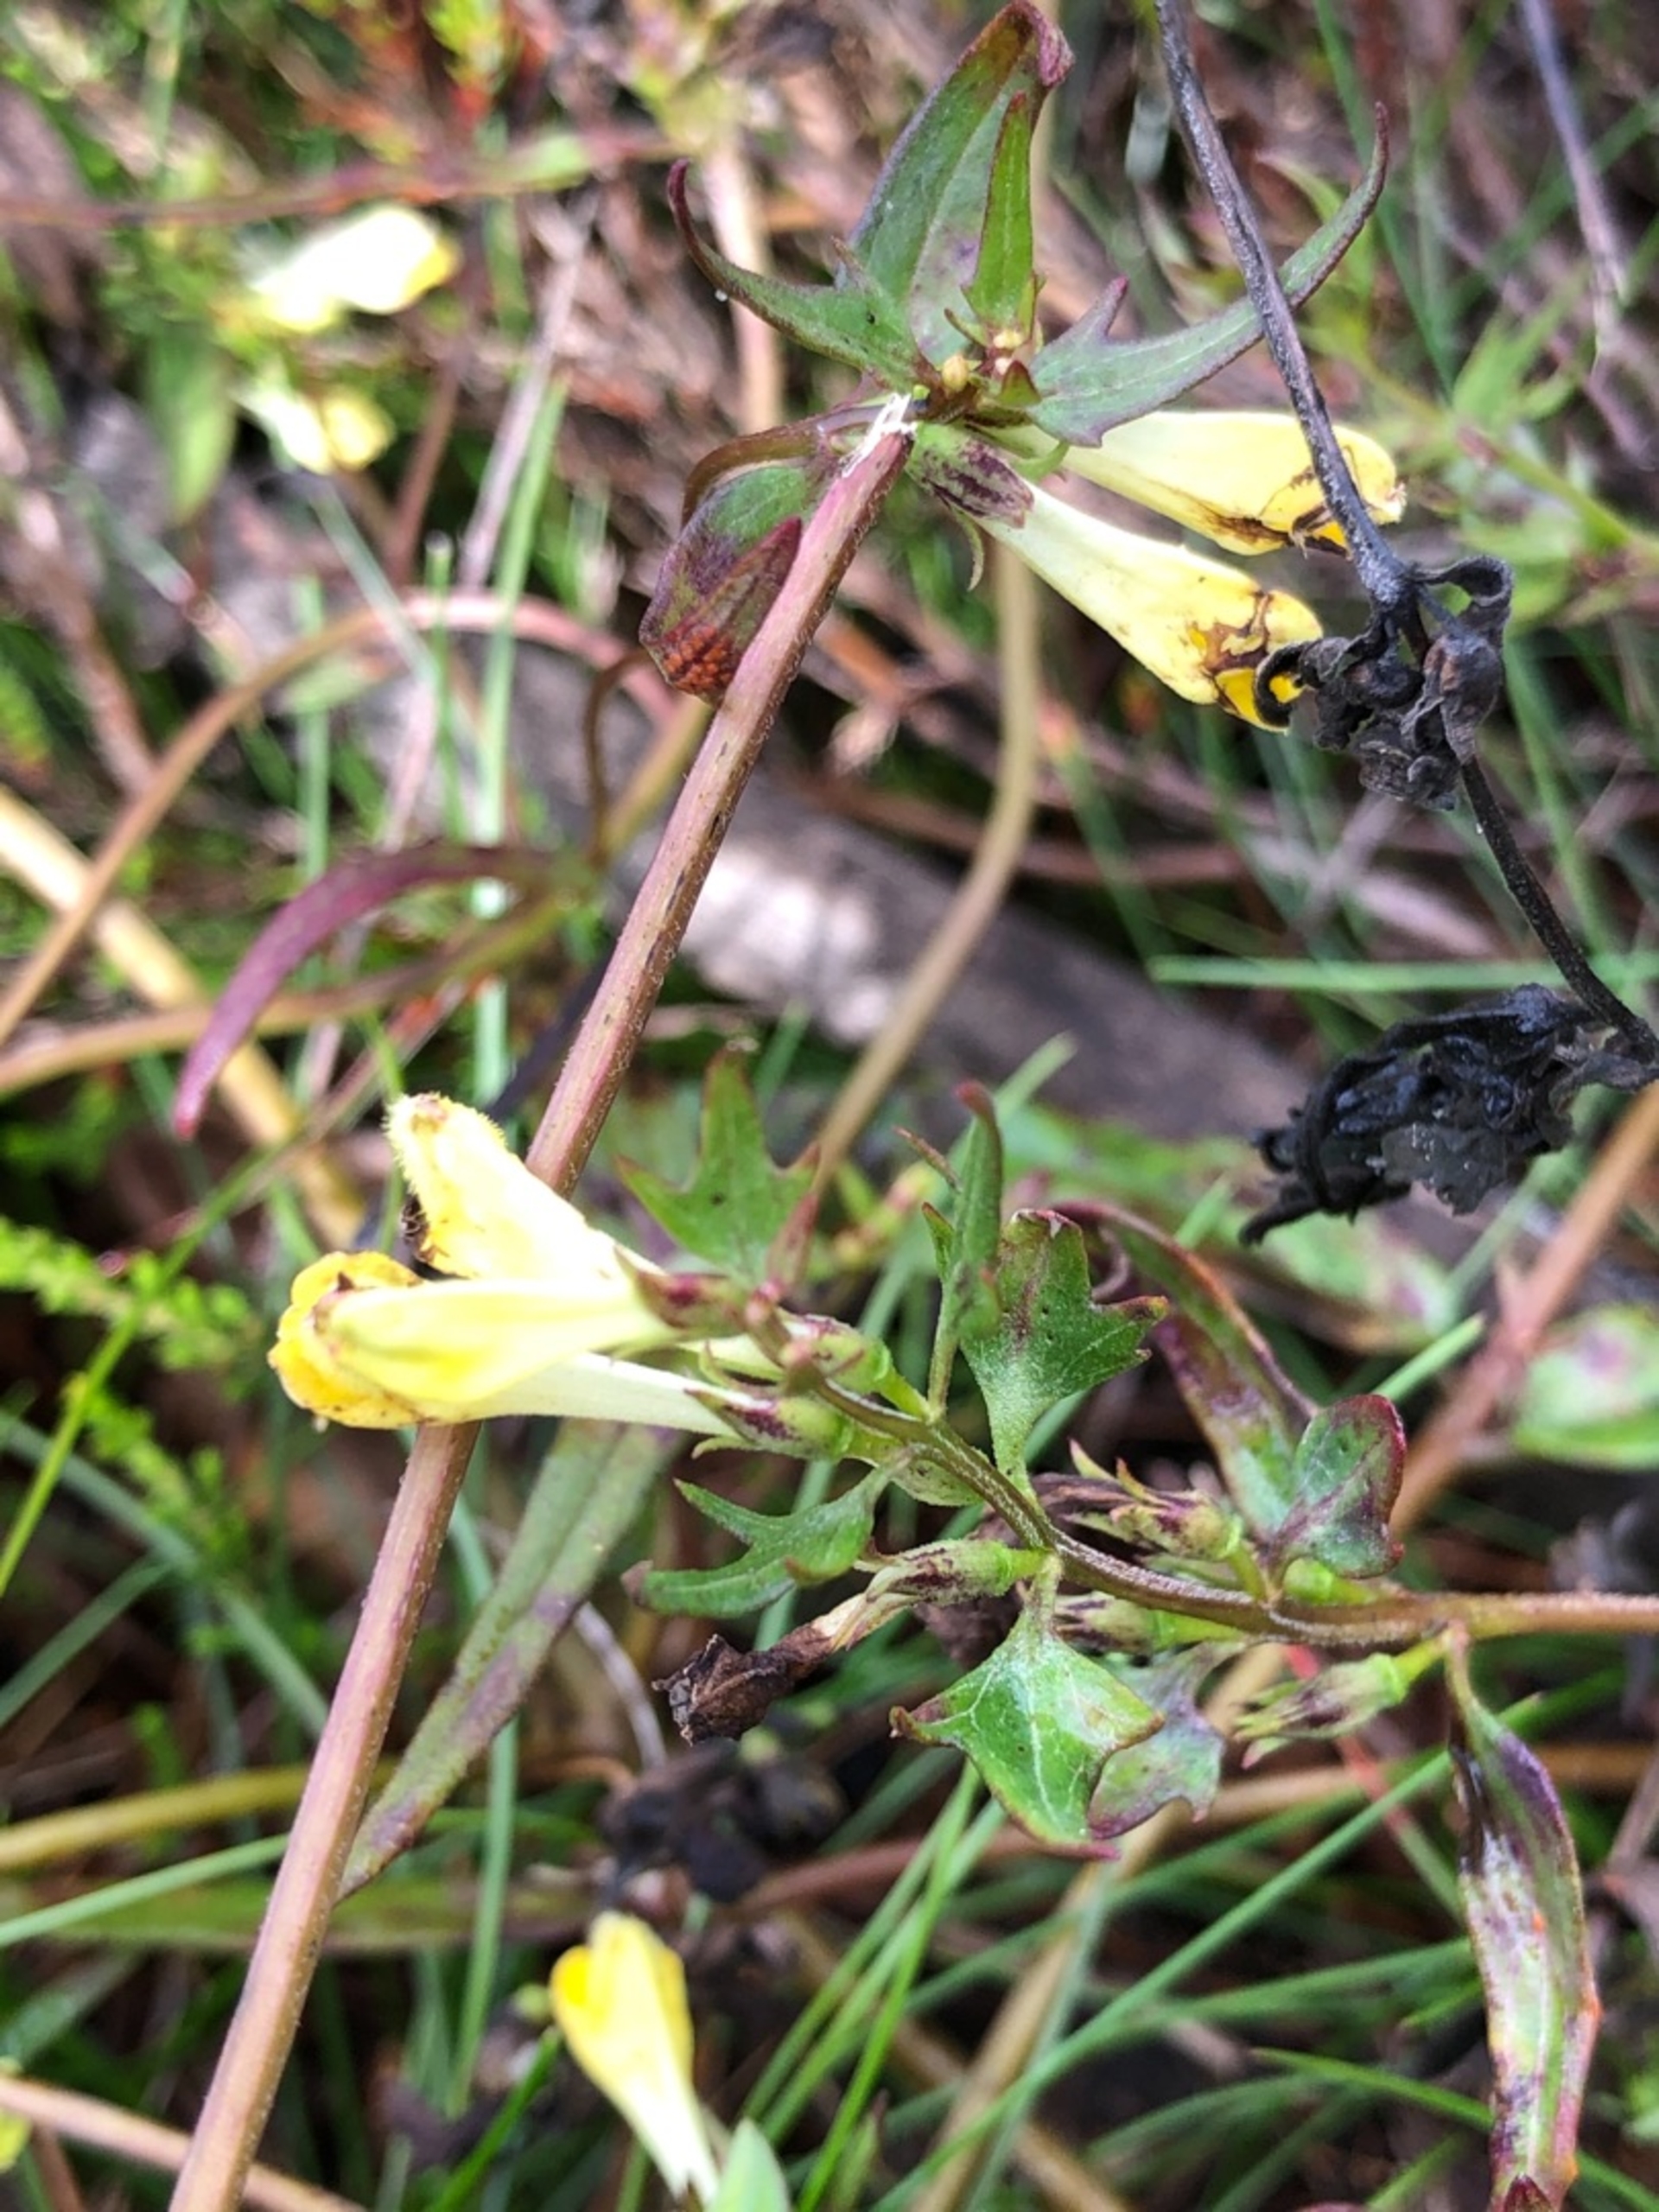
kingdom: Plantae
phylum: Tracheophyta
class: Magnoliopsida
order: Lamiales
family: Orobanchaceae
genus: Melampyrum
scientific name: Melampyrum pratense
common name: Almindelig kohvede
